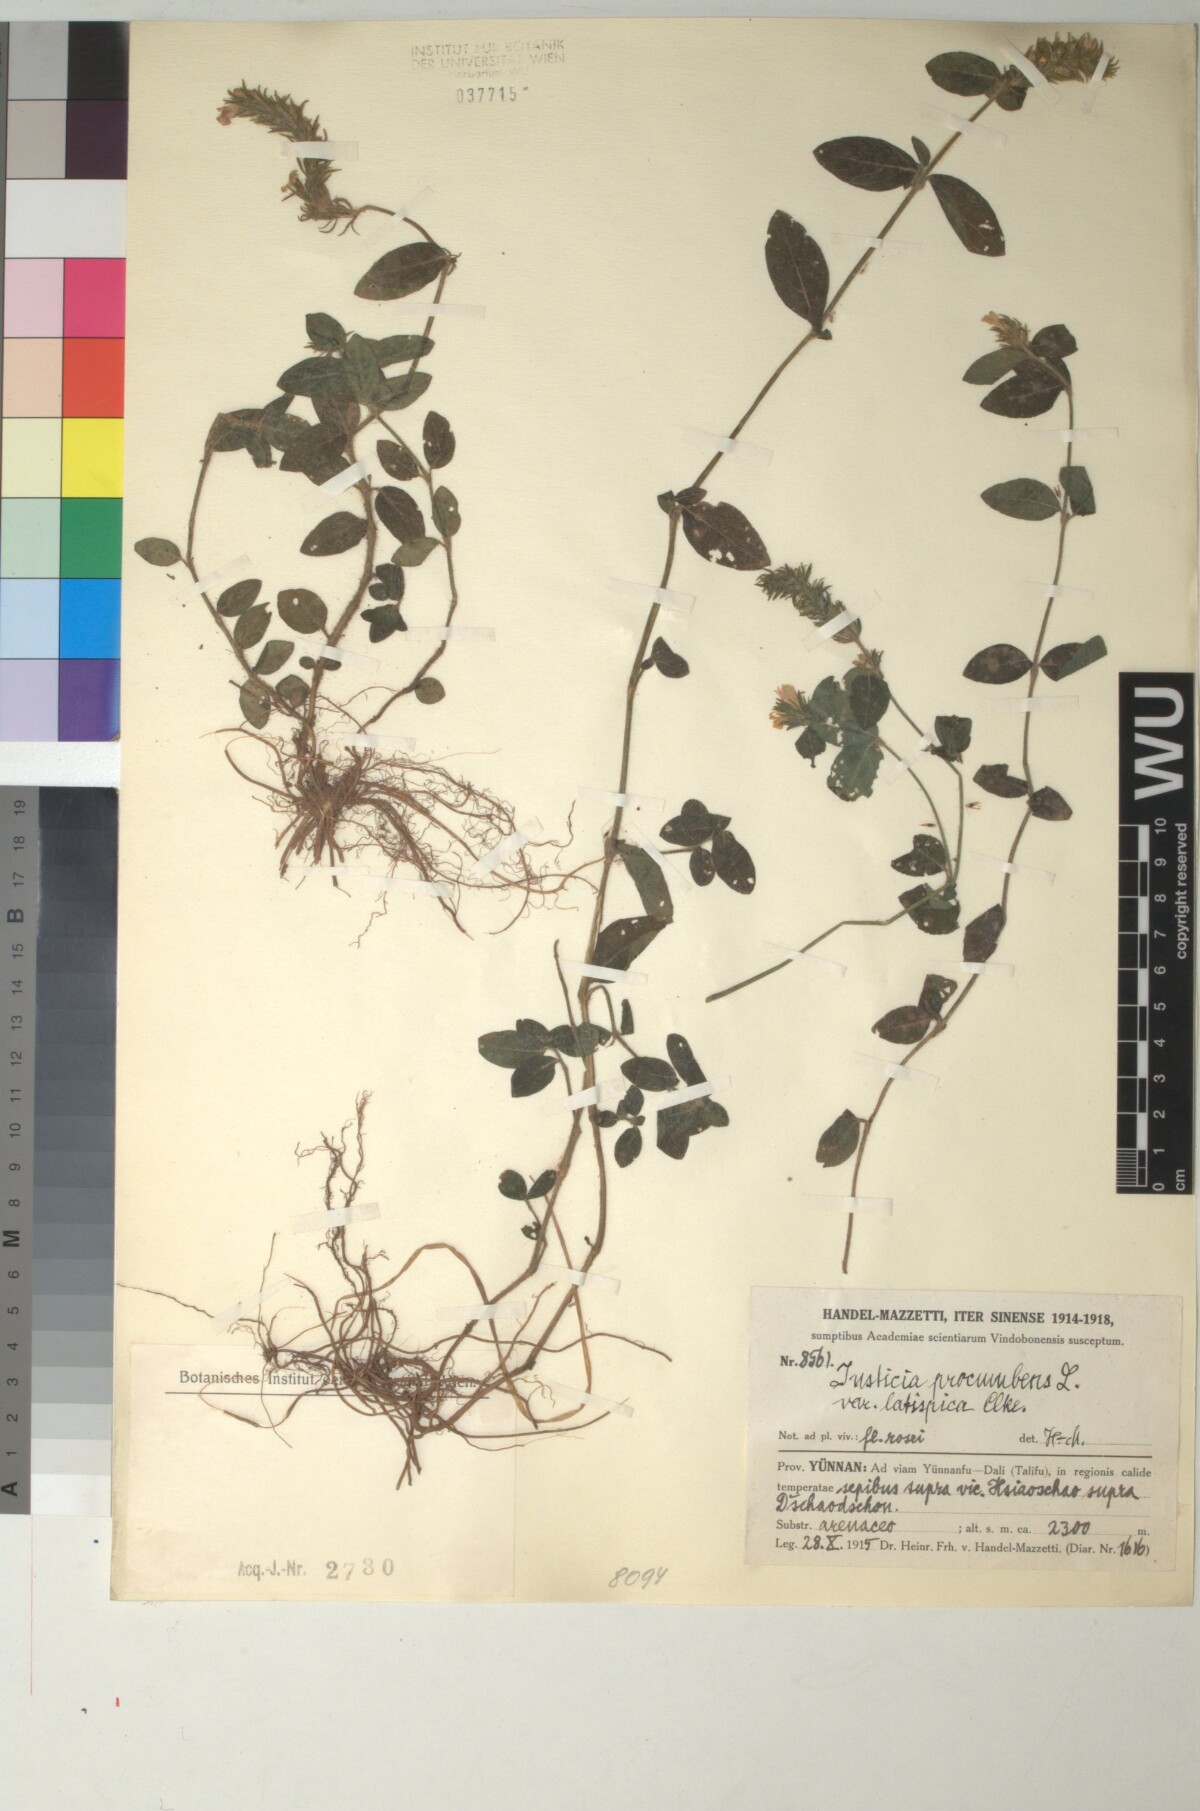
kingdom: Plantae
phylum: Tracheophyta
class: Magnoliopsida
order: Lamiales
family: Acanthaceae
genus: Rostellularia
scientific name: Rostellularia latispica
